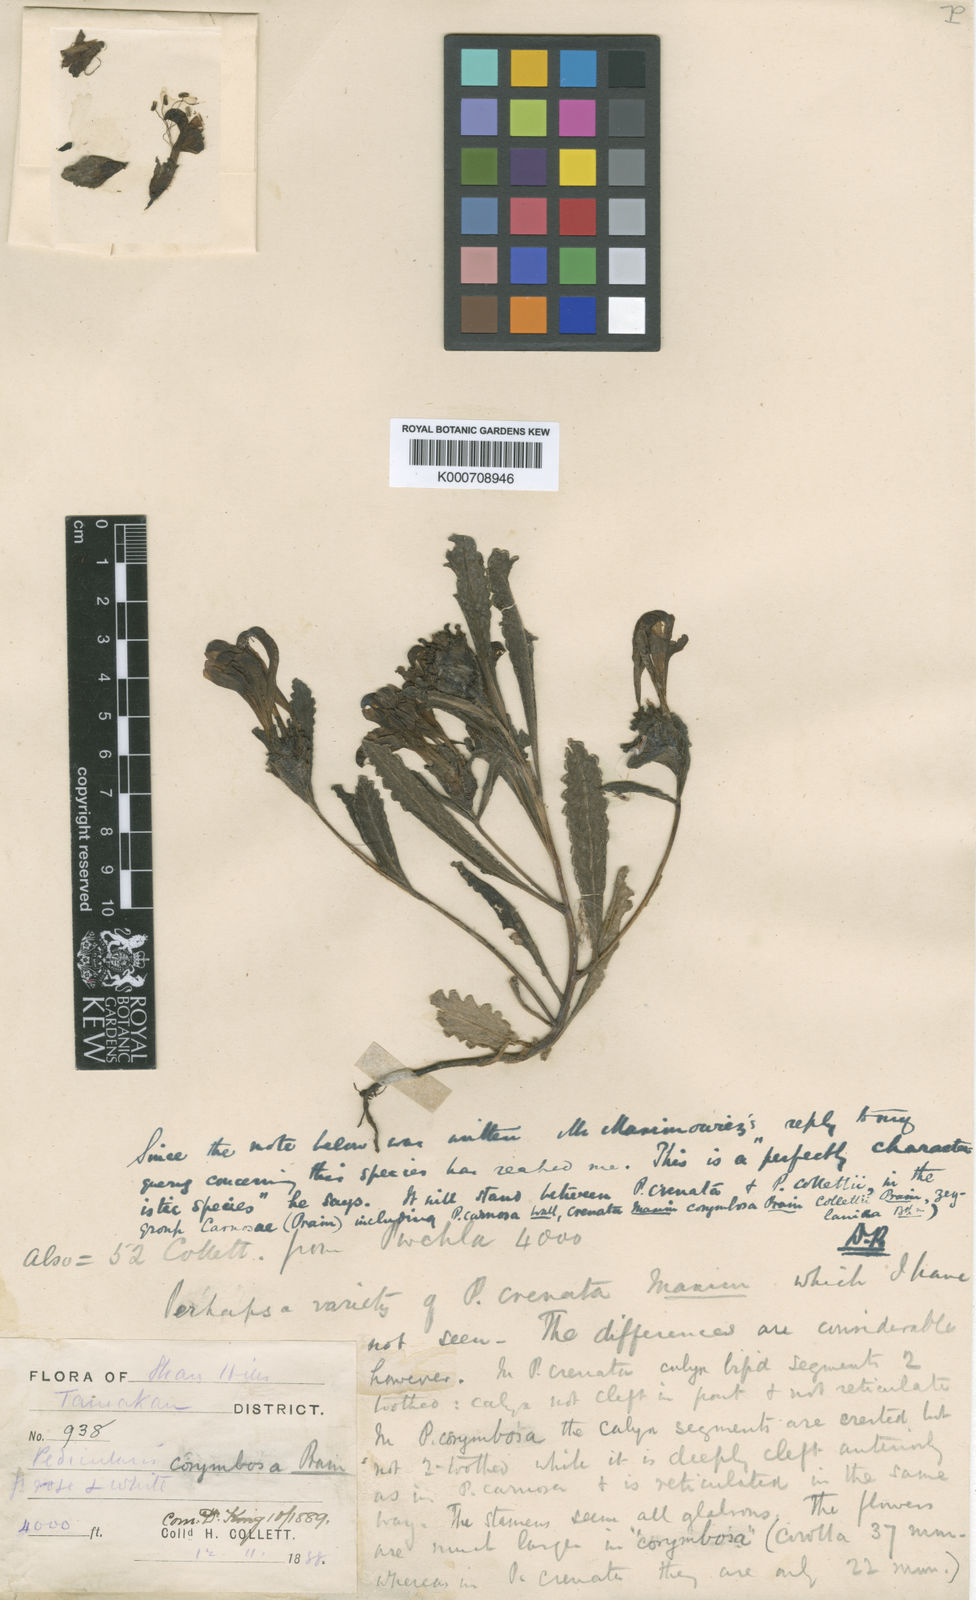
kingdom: Plantae
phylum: Tracheophyta
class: Magnoliopsida
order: Lamiales
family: Orobanchaceae
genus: Pedicularis
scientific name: Pedicularis evrardii
